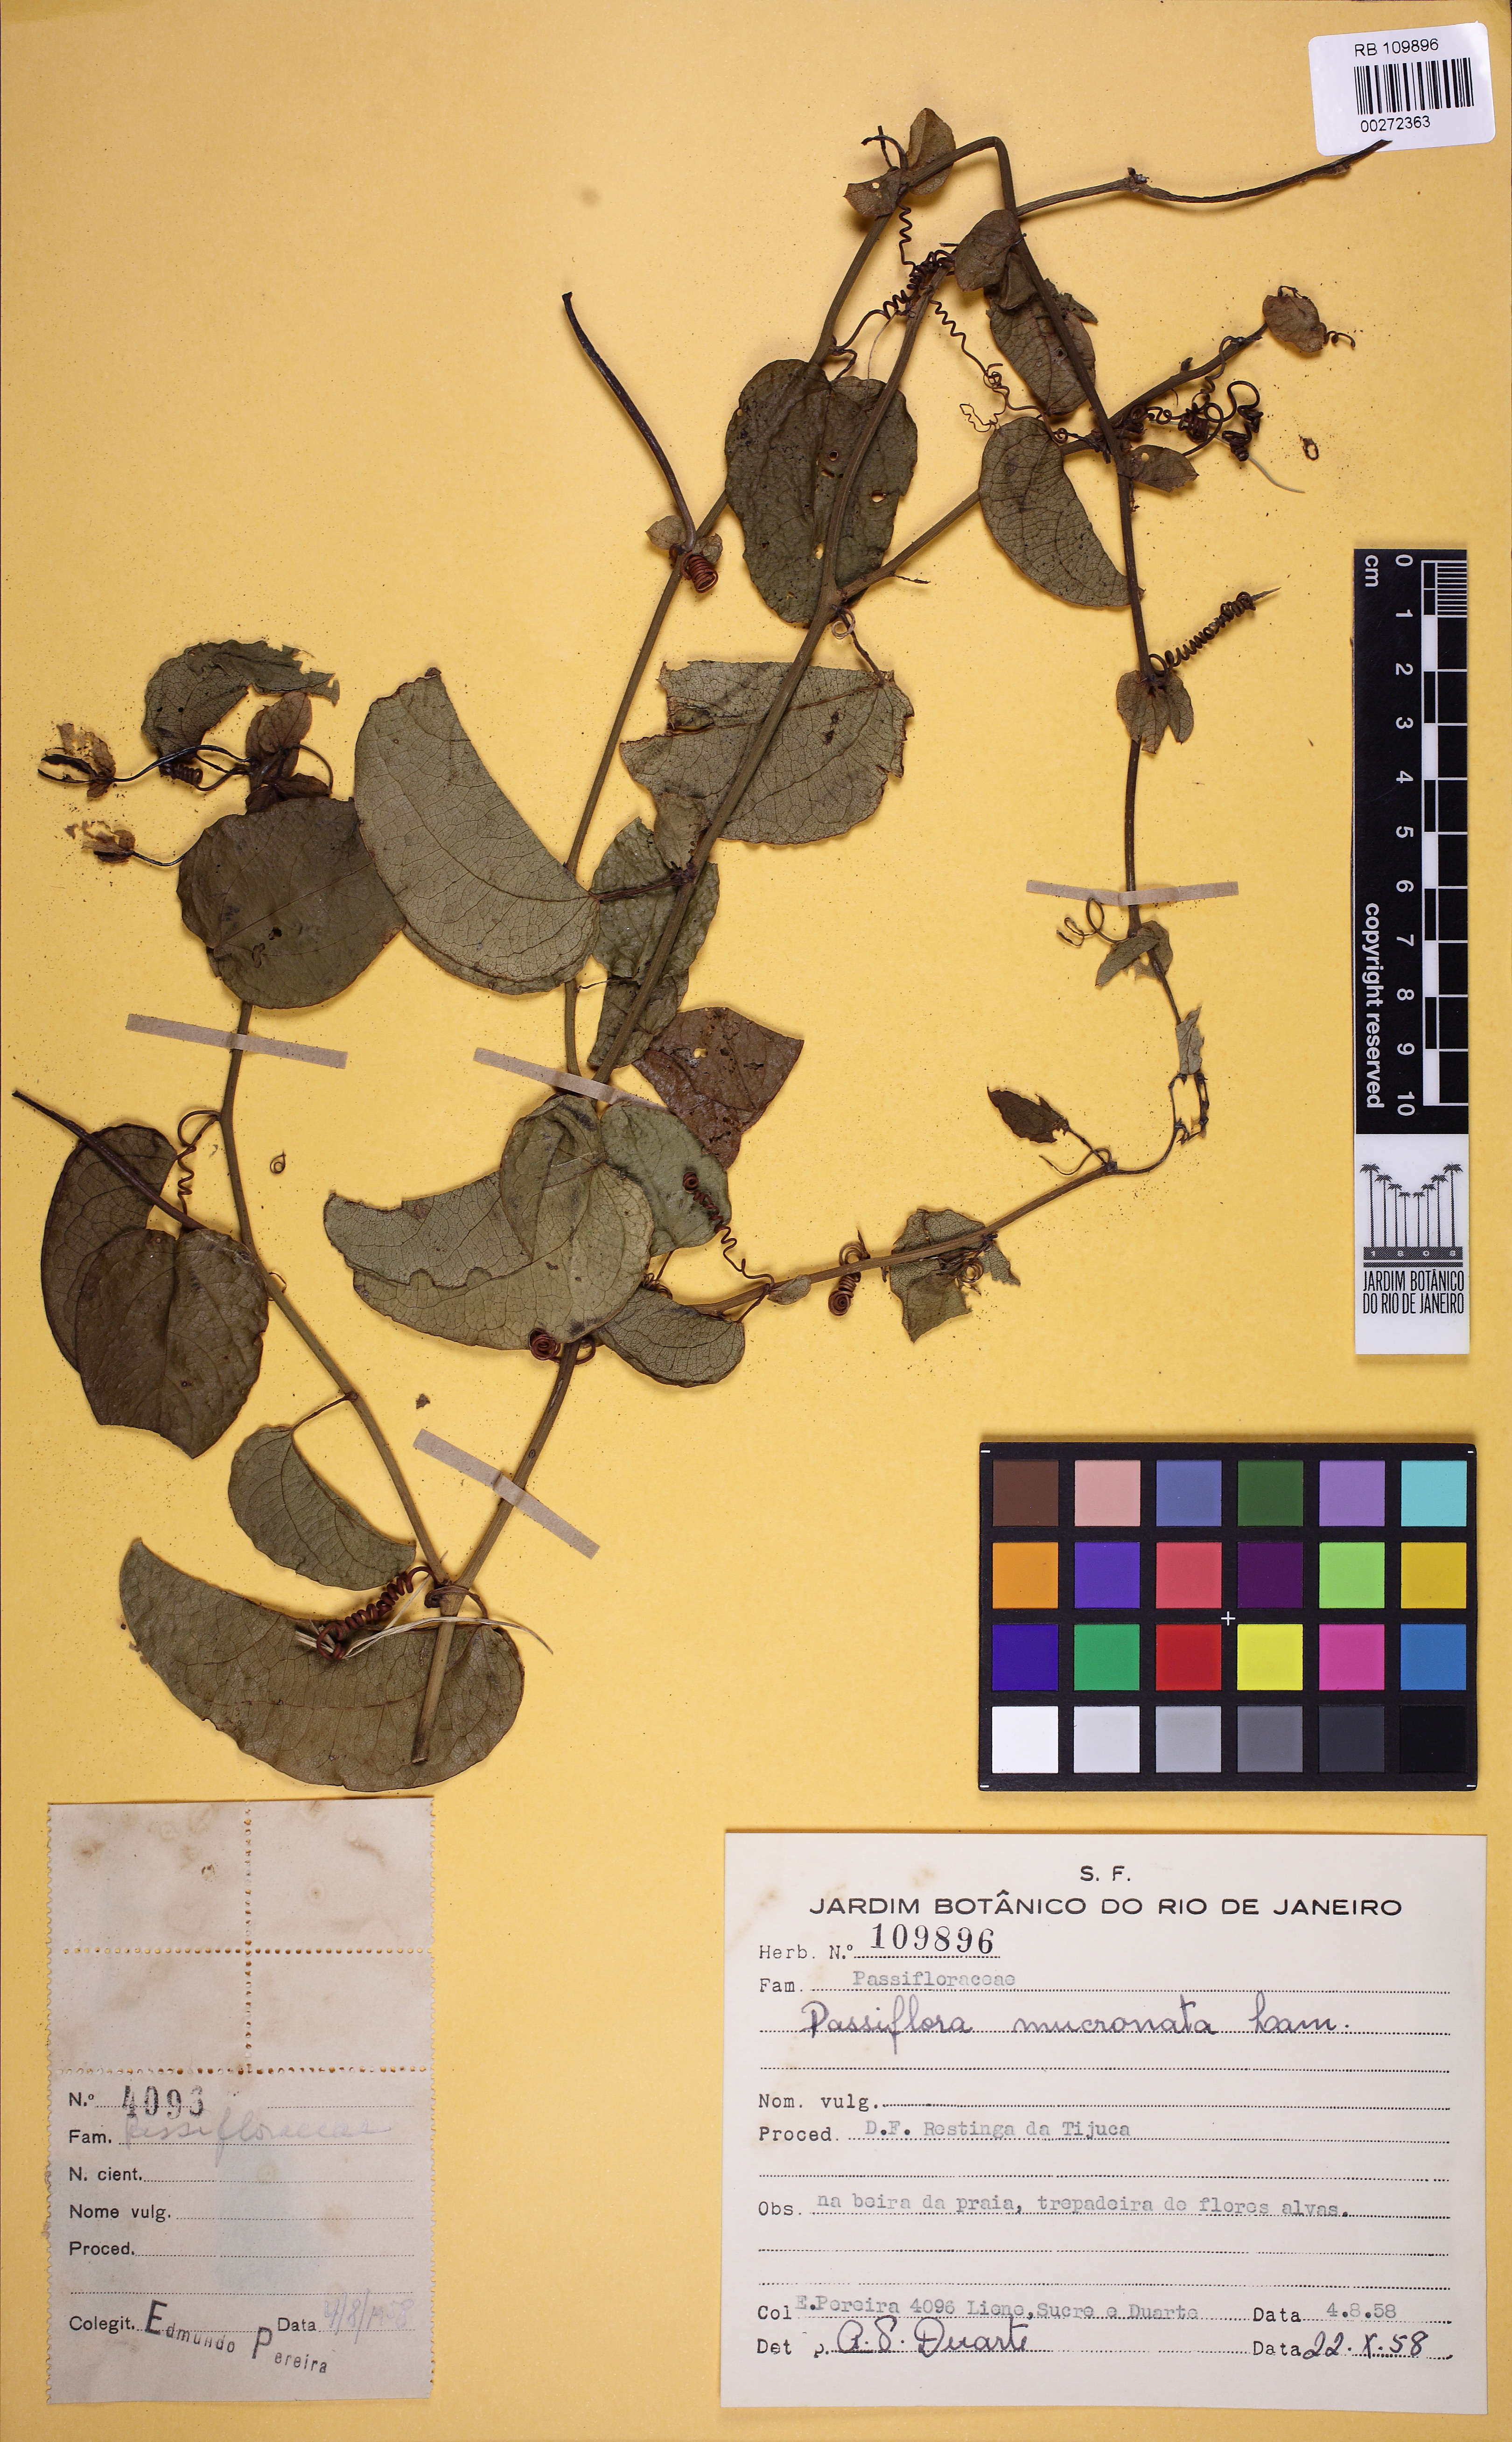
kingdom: Plantae
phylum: Tracheophyta
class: Magnoliopsida
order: Malpighiales
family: Passifloraceae
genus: Passiflora
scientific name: Passiflora mucronata
